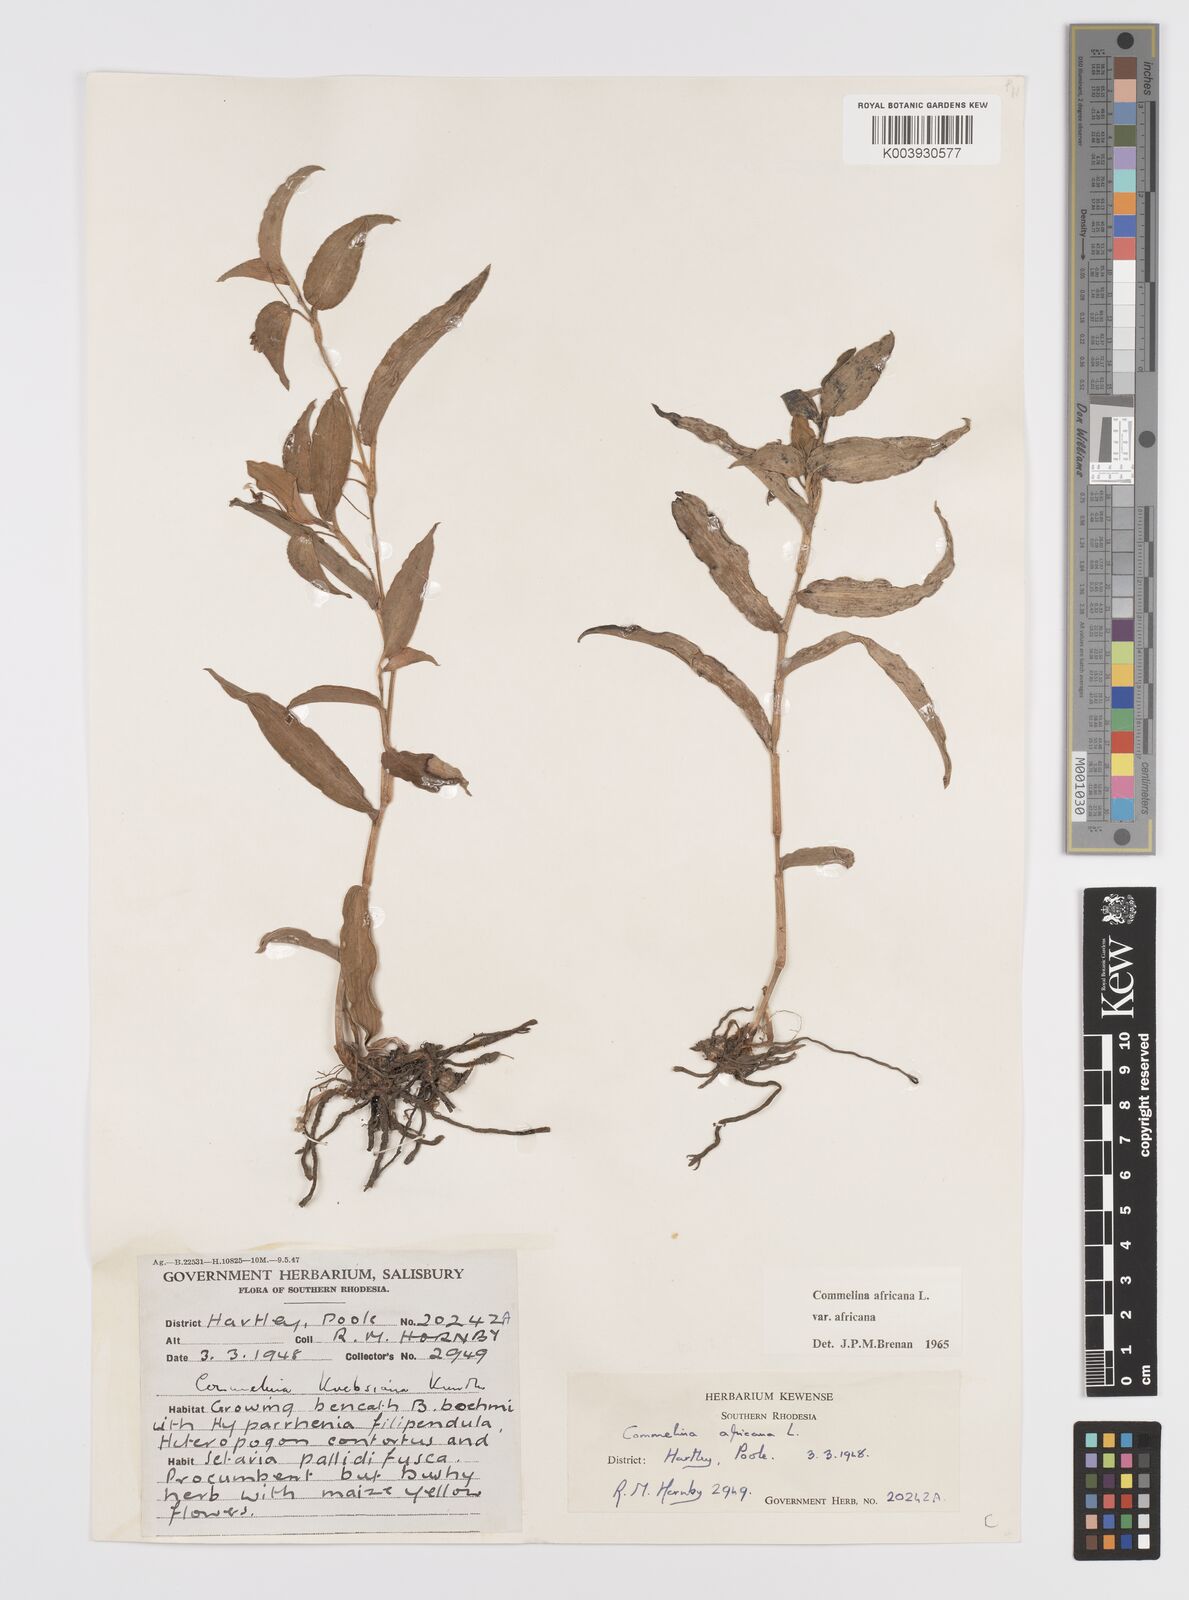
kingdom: Plantae
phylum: Tracheophyta
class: Liliopsida
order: Commelinales
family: Commelinaceae
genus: Commelina
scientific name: Commelina africana
